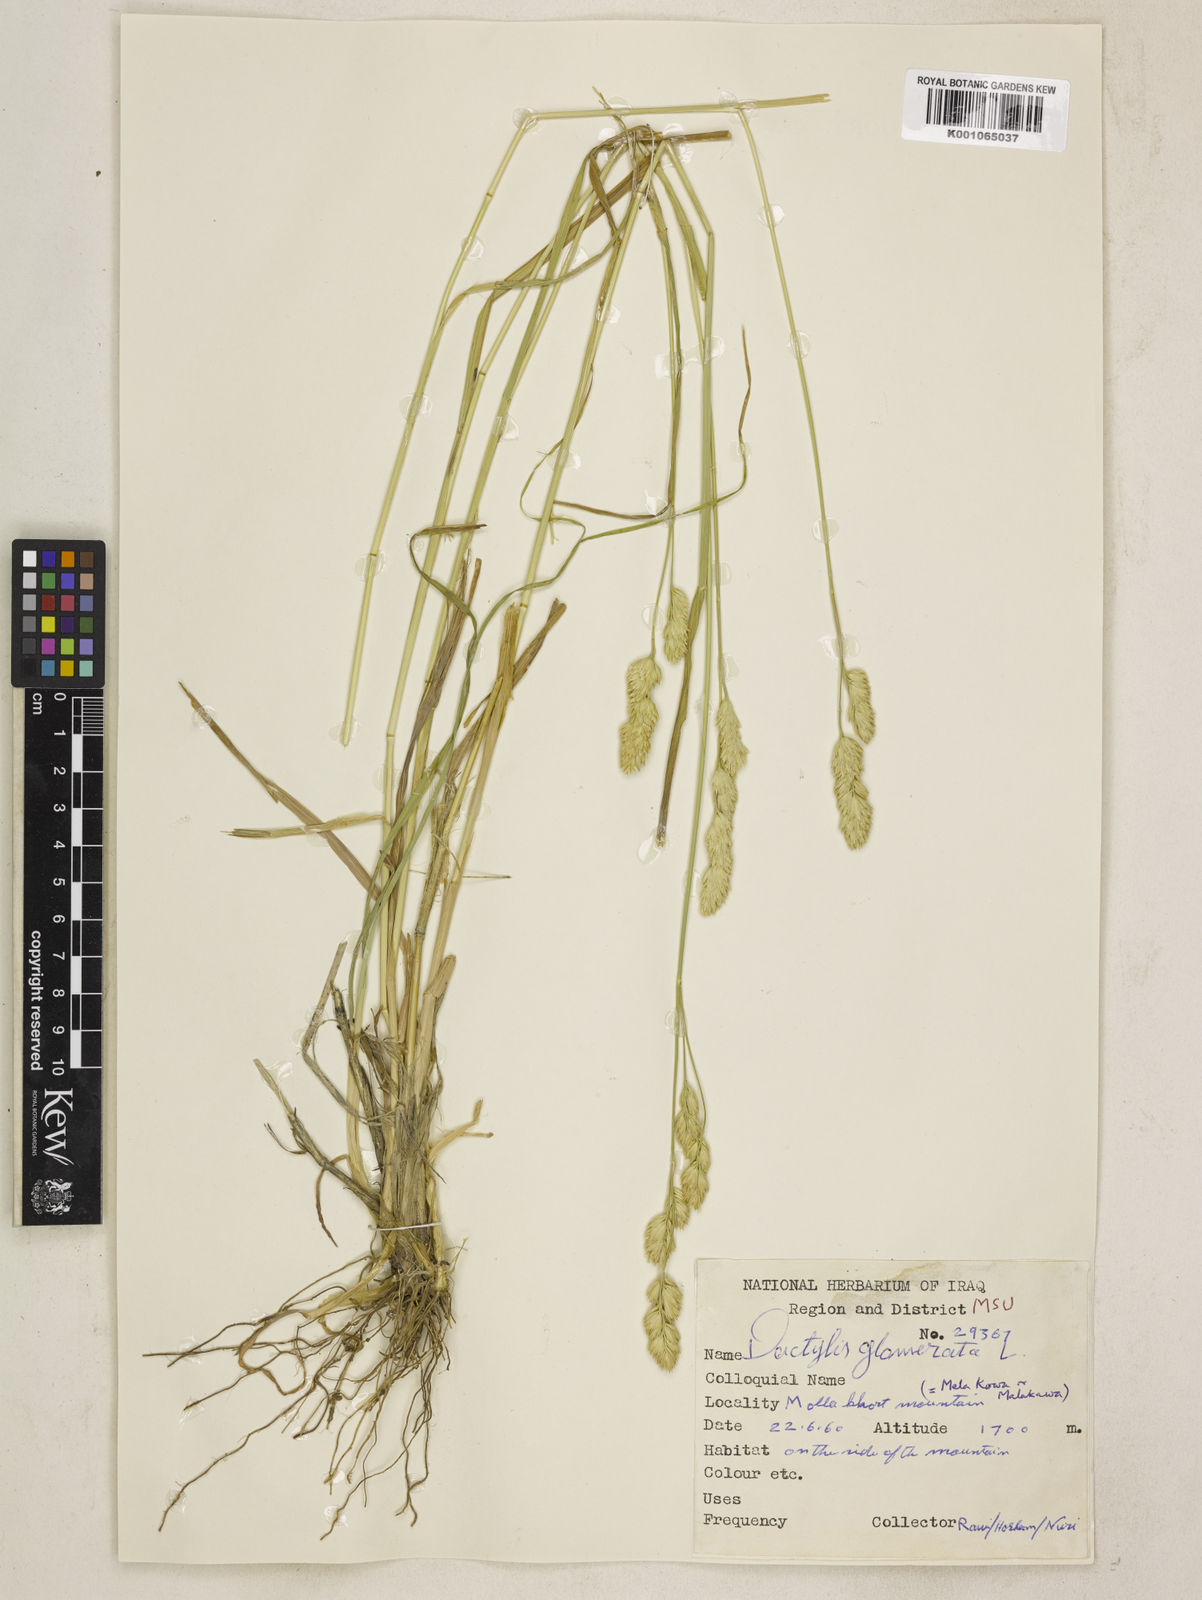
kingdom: Plantae
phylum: Tracheophyta
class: Liliopsida
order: Poales
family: Poaceae
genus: Dactylis
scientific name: Dactylis glomerata
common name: Orchardgrass
